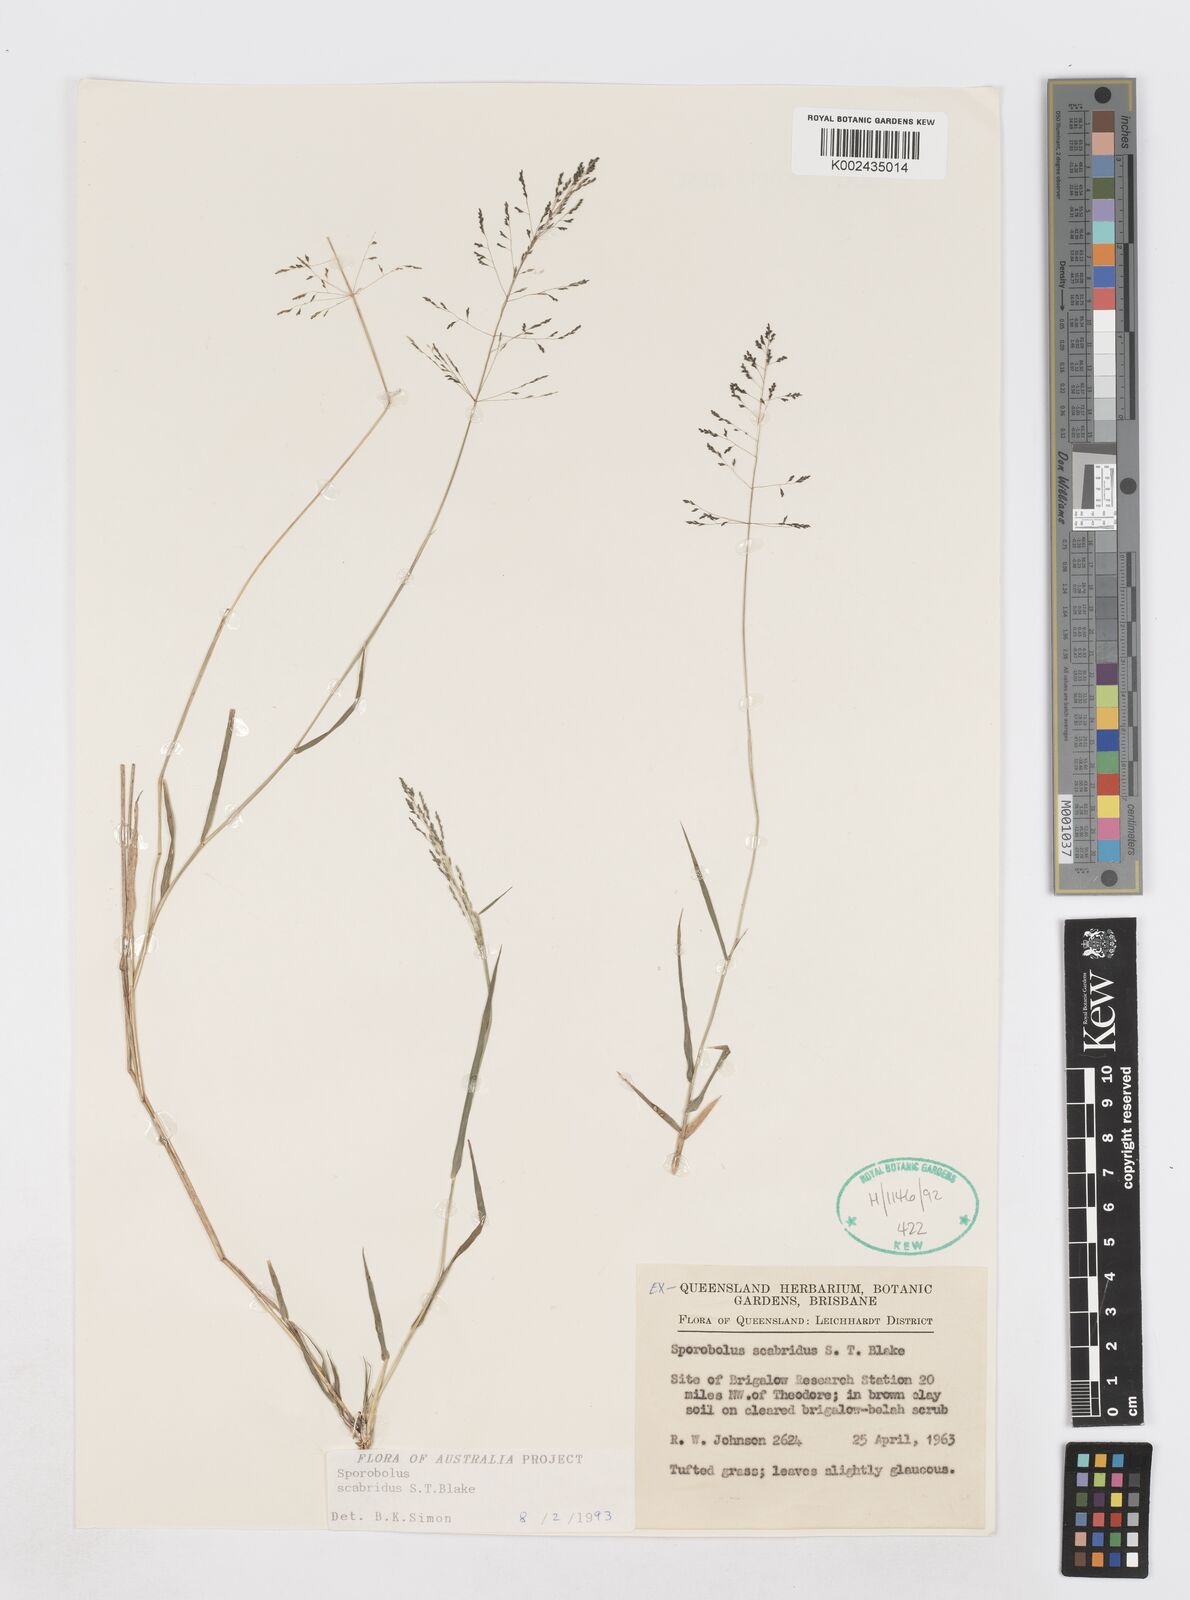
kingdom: Plantae
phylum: Tracheophyta
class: Liliopsida
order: Poales
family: Poaceae
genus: Sporobolus
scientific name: Sporobolus scabridus
